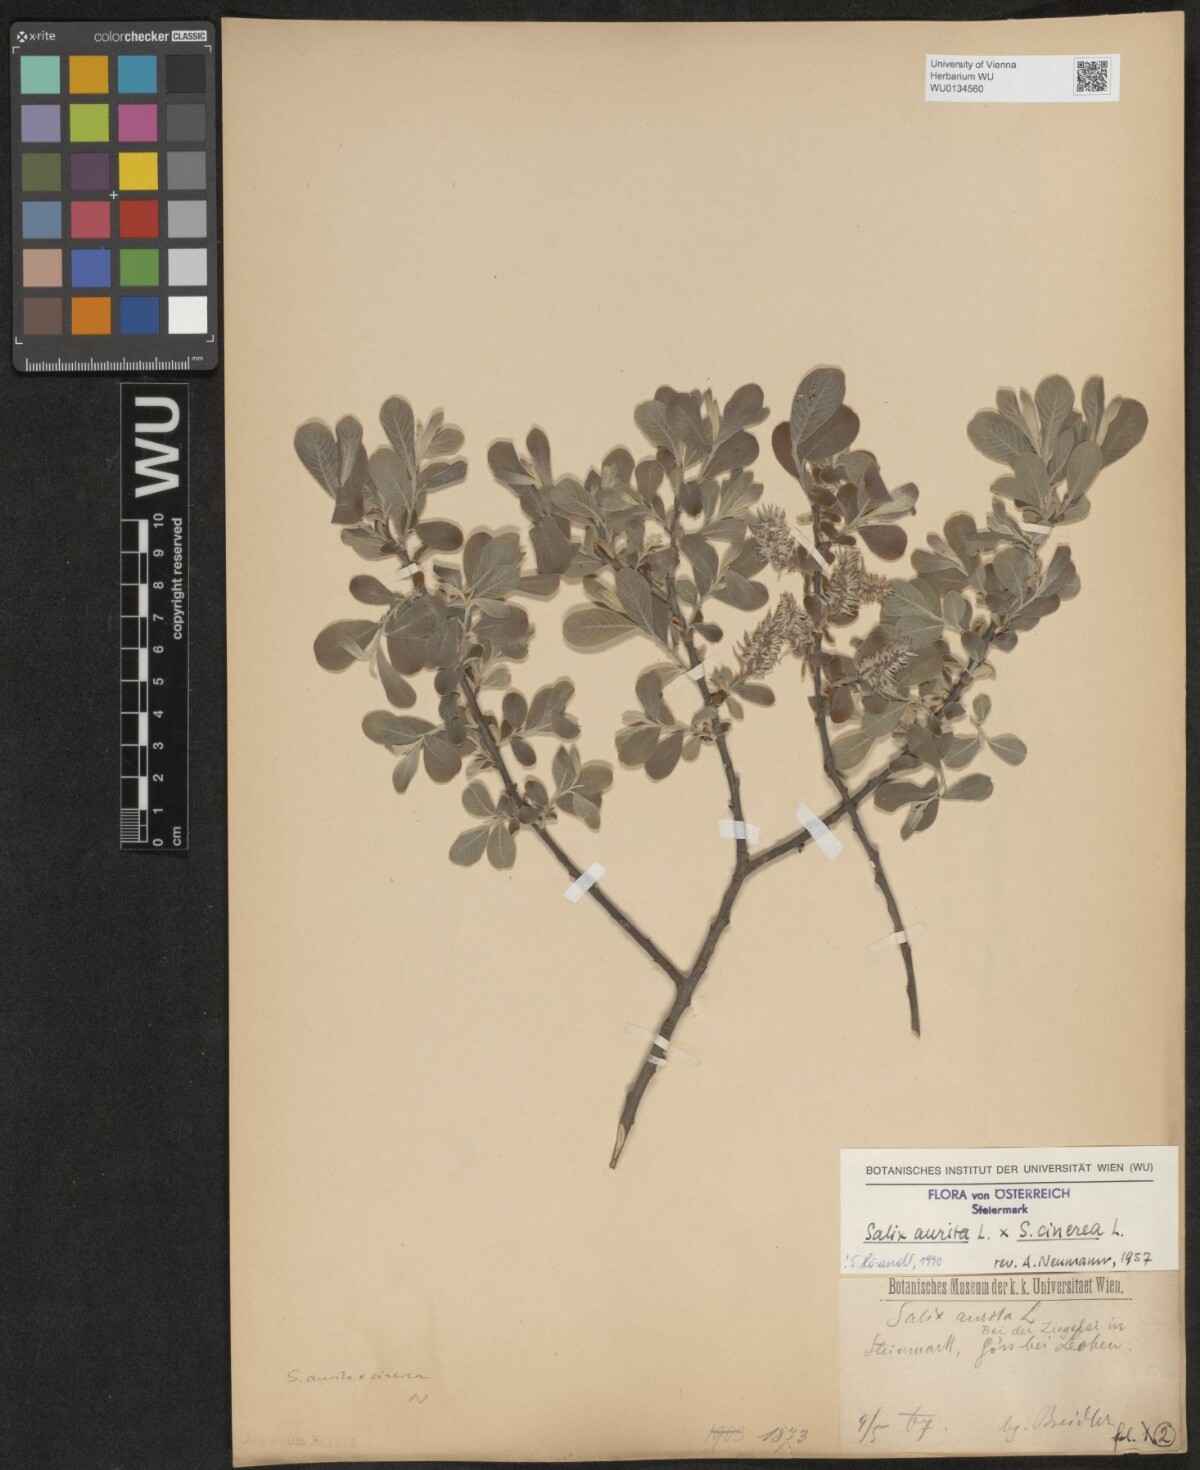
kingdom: Plantae
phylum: Tracheophyta
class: Magnoliopsida
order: Malpighiales
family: Salicaceae
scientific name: Salicaceae
